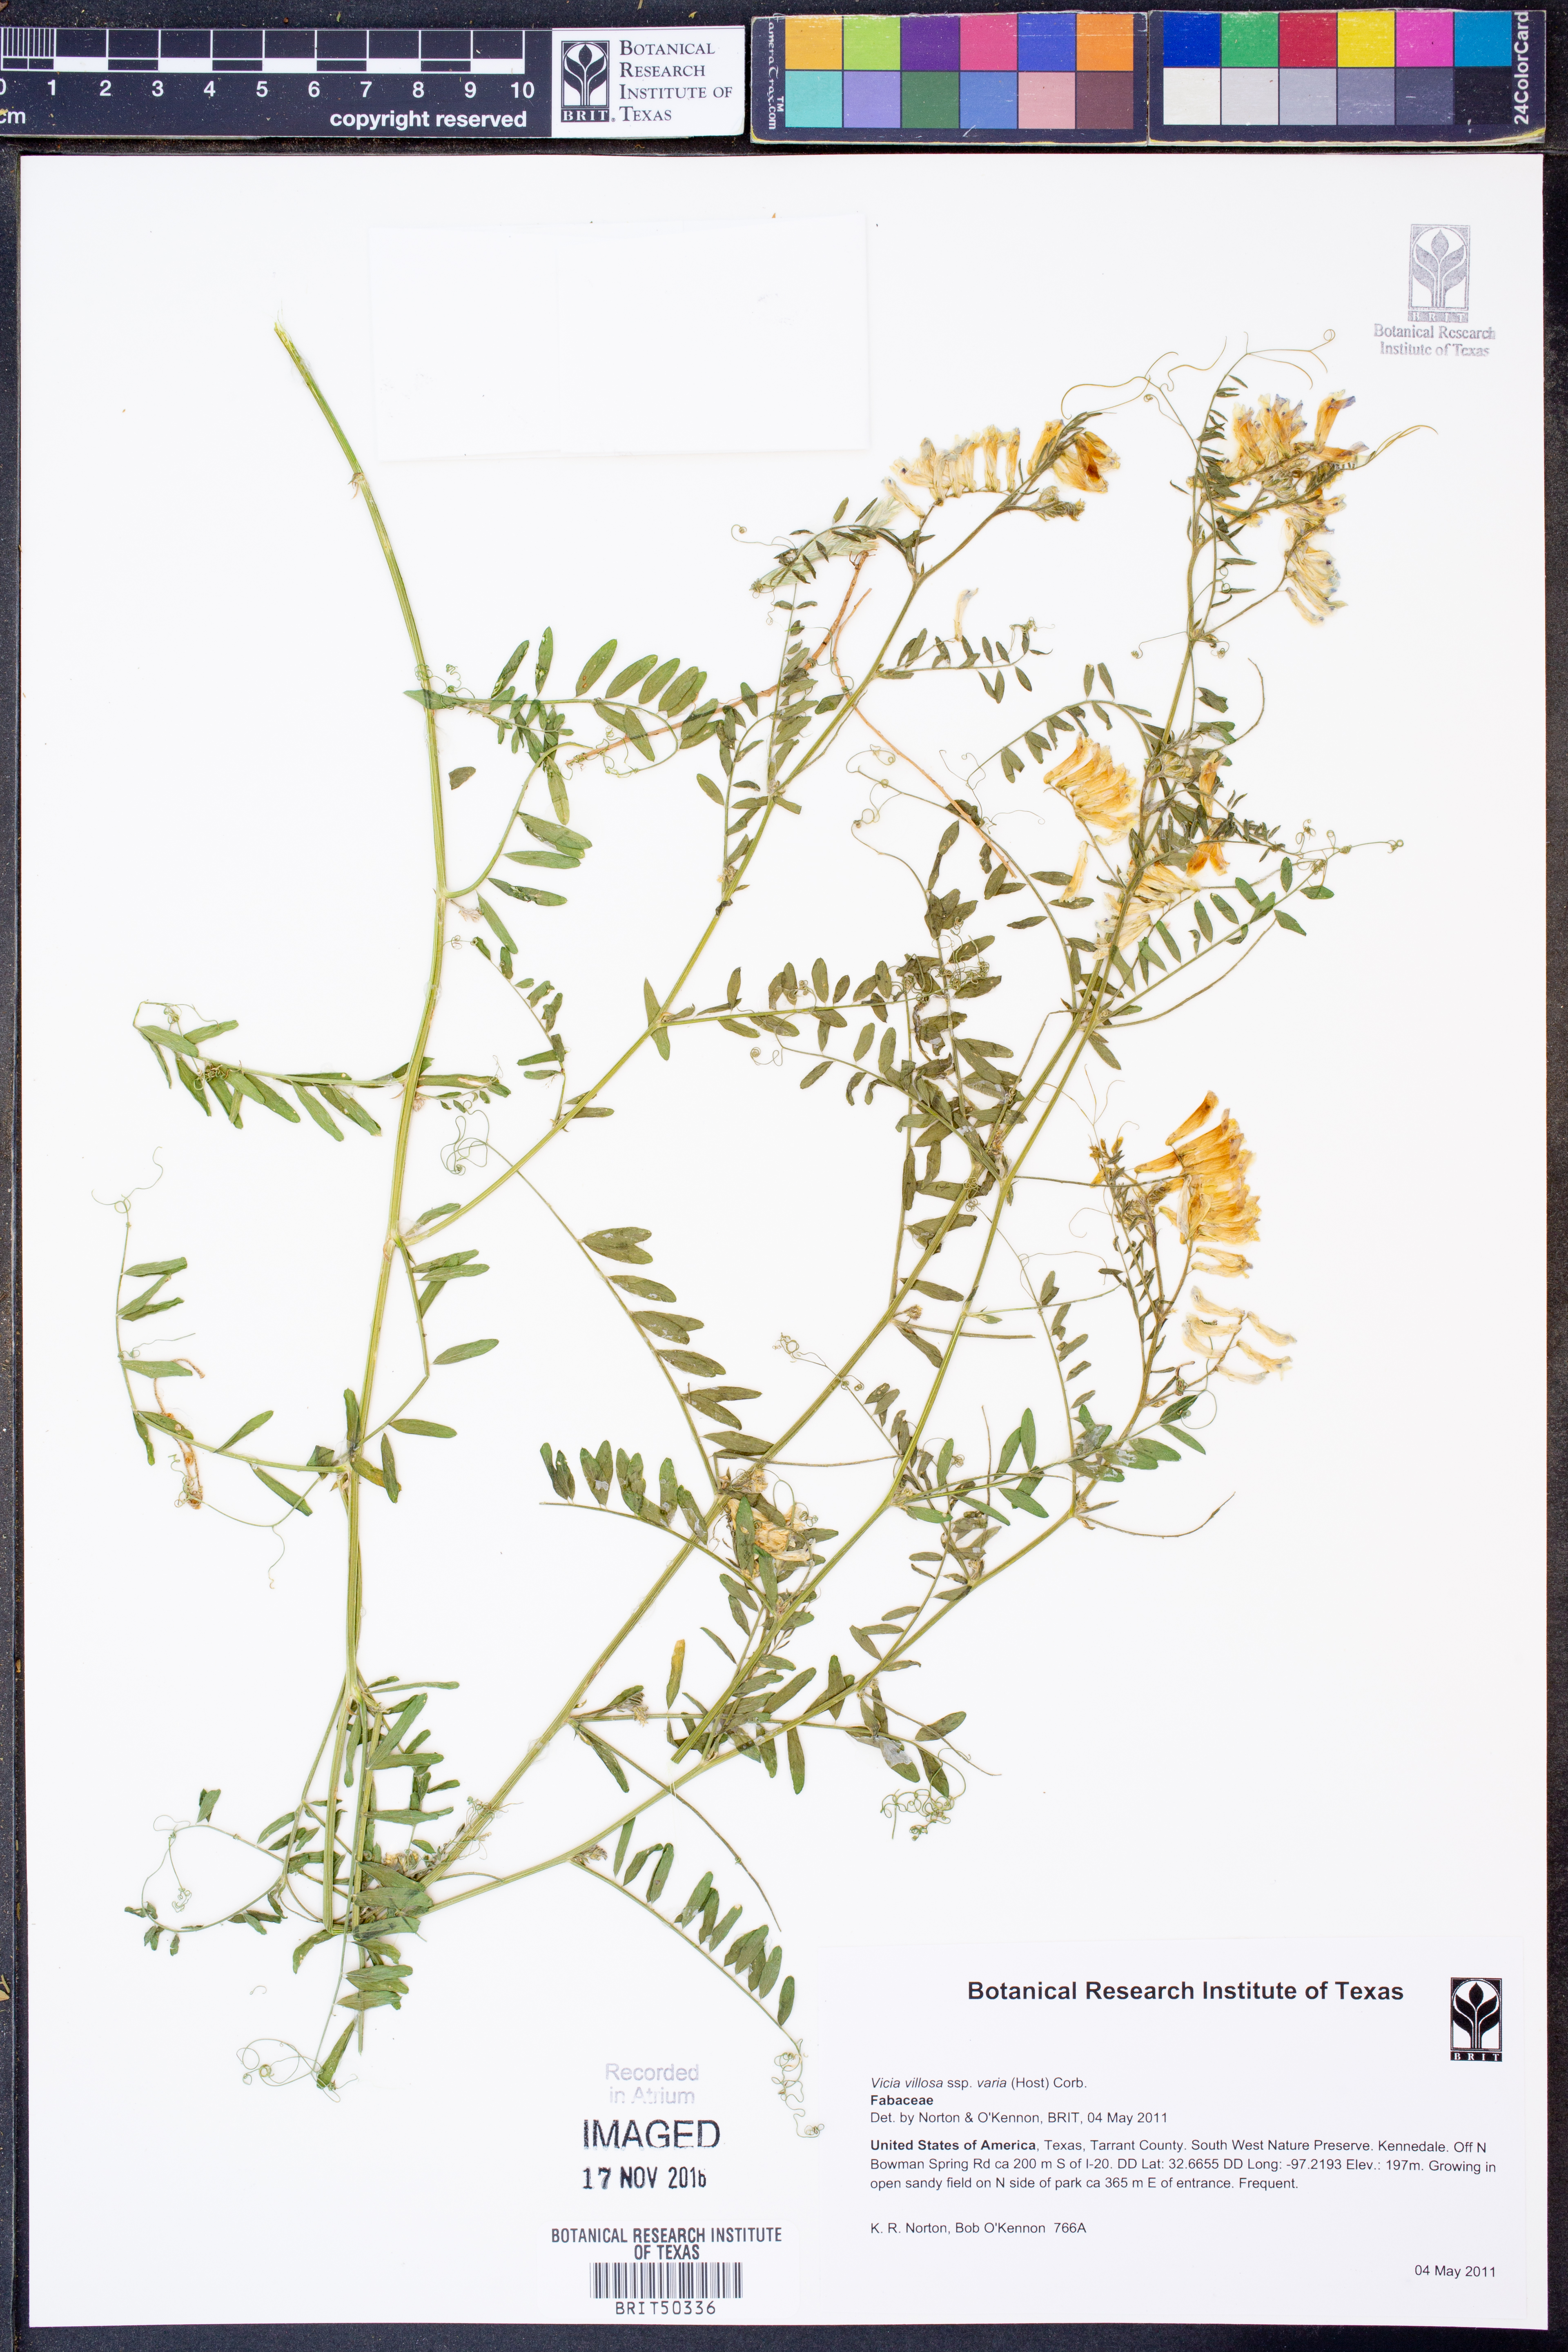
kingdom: Plantae
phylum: Tracheophyta
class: Magnoliopsida
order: Fabales
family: Fabaceae
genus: Vicia
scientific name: Vicia villosa
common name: Fodder vetch
